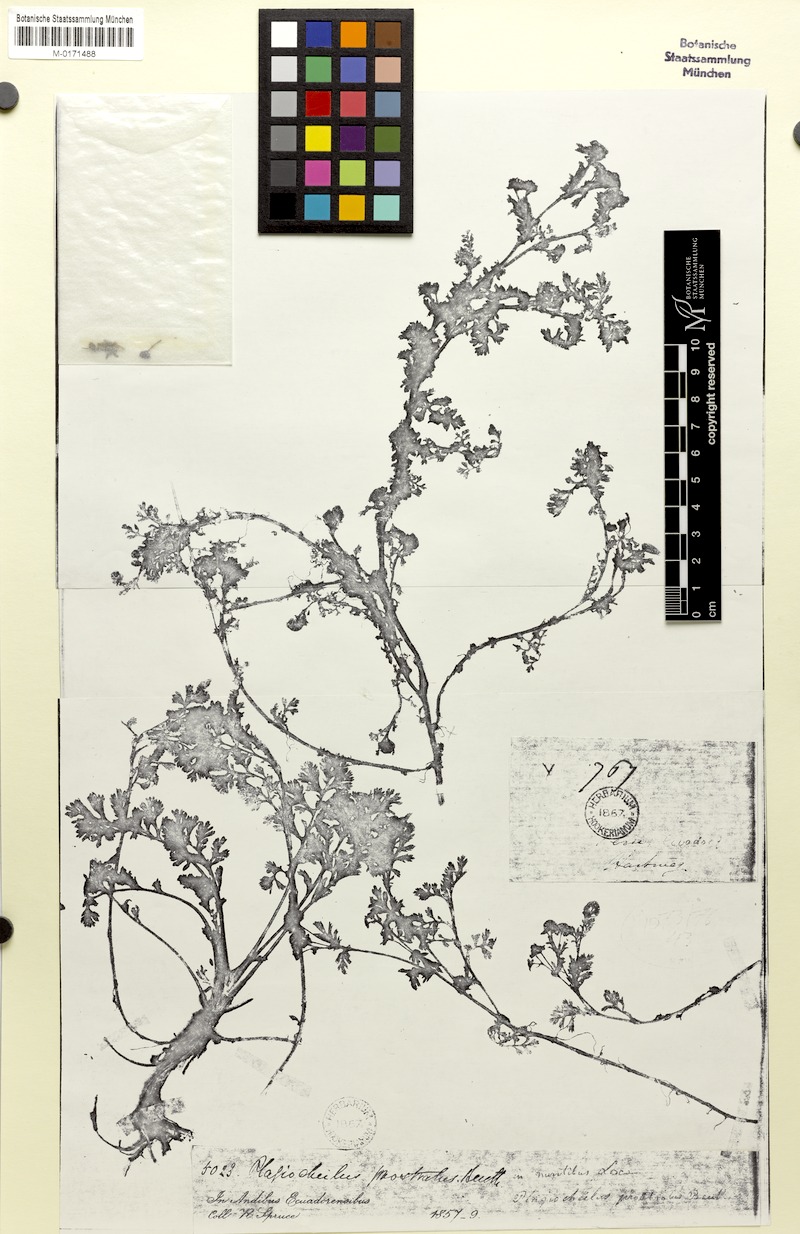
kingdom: Plantae
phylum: Tracheophyta
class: Magnoliopsida
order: Asterales
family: Asteraceae
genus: Plagiocheilus
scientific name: Plagiocheilus bogotensis
